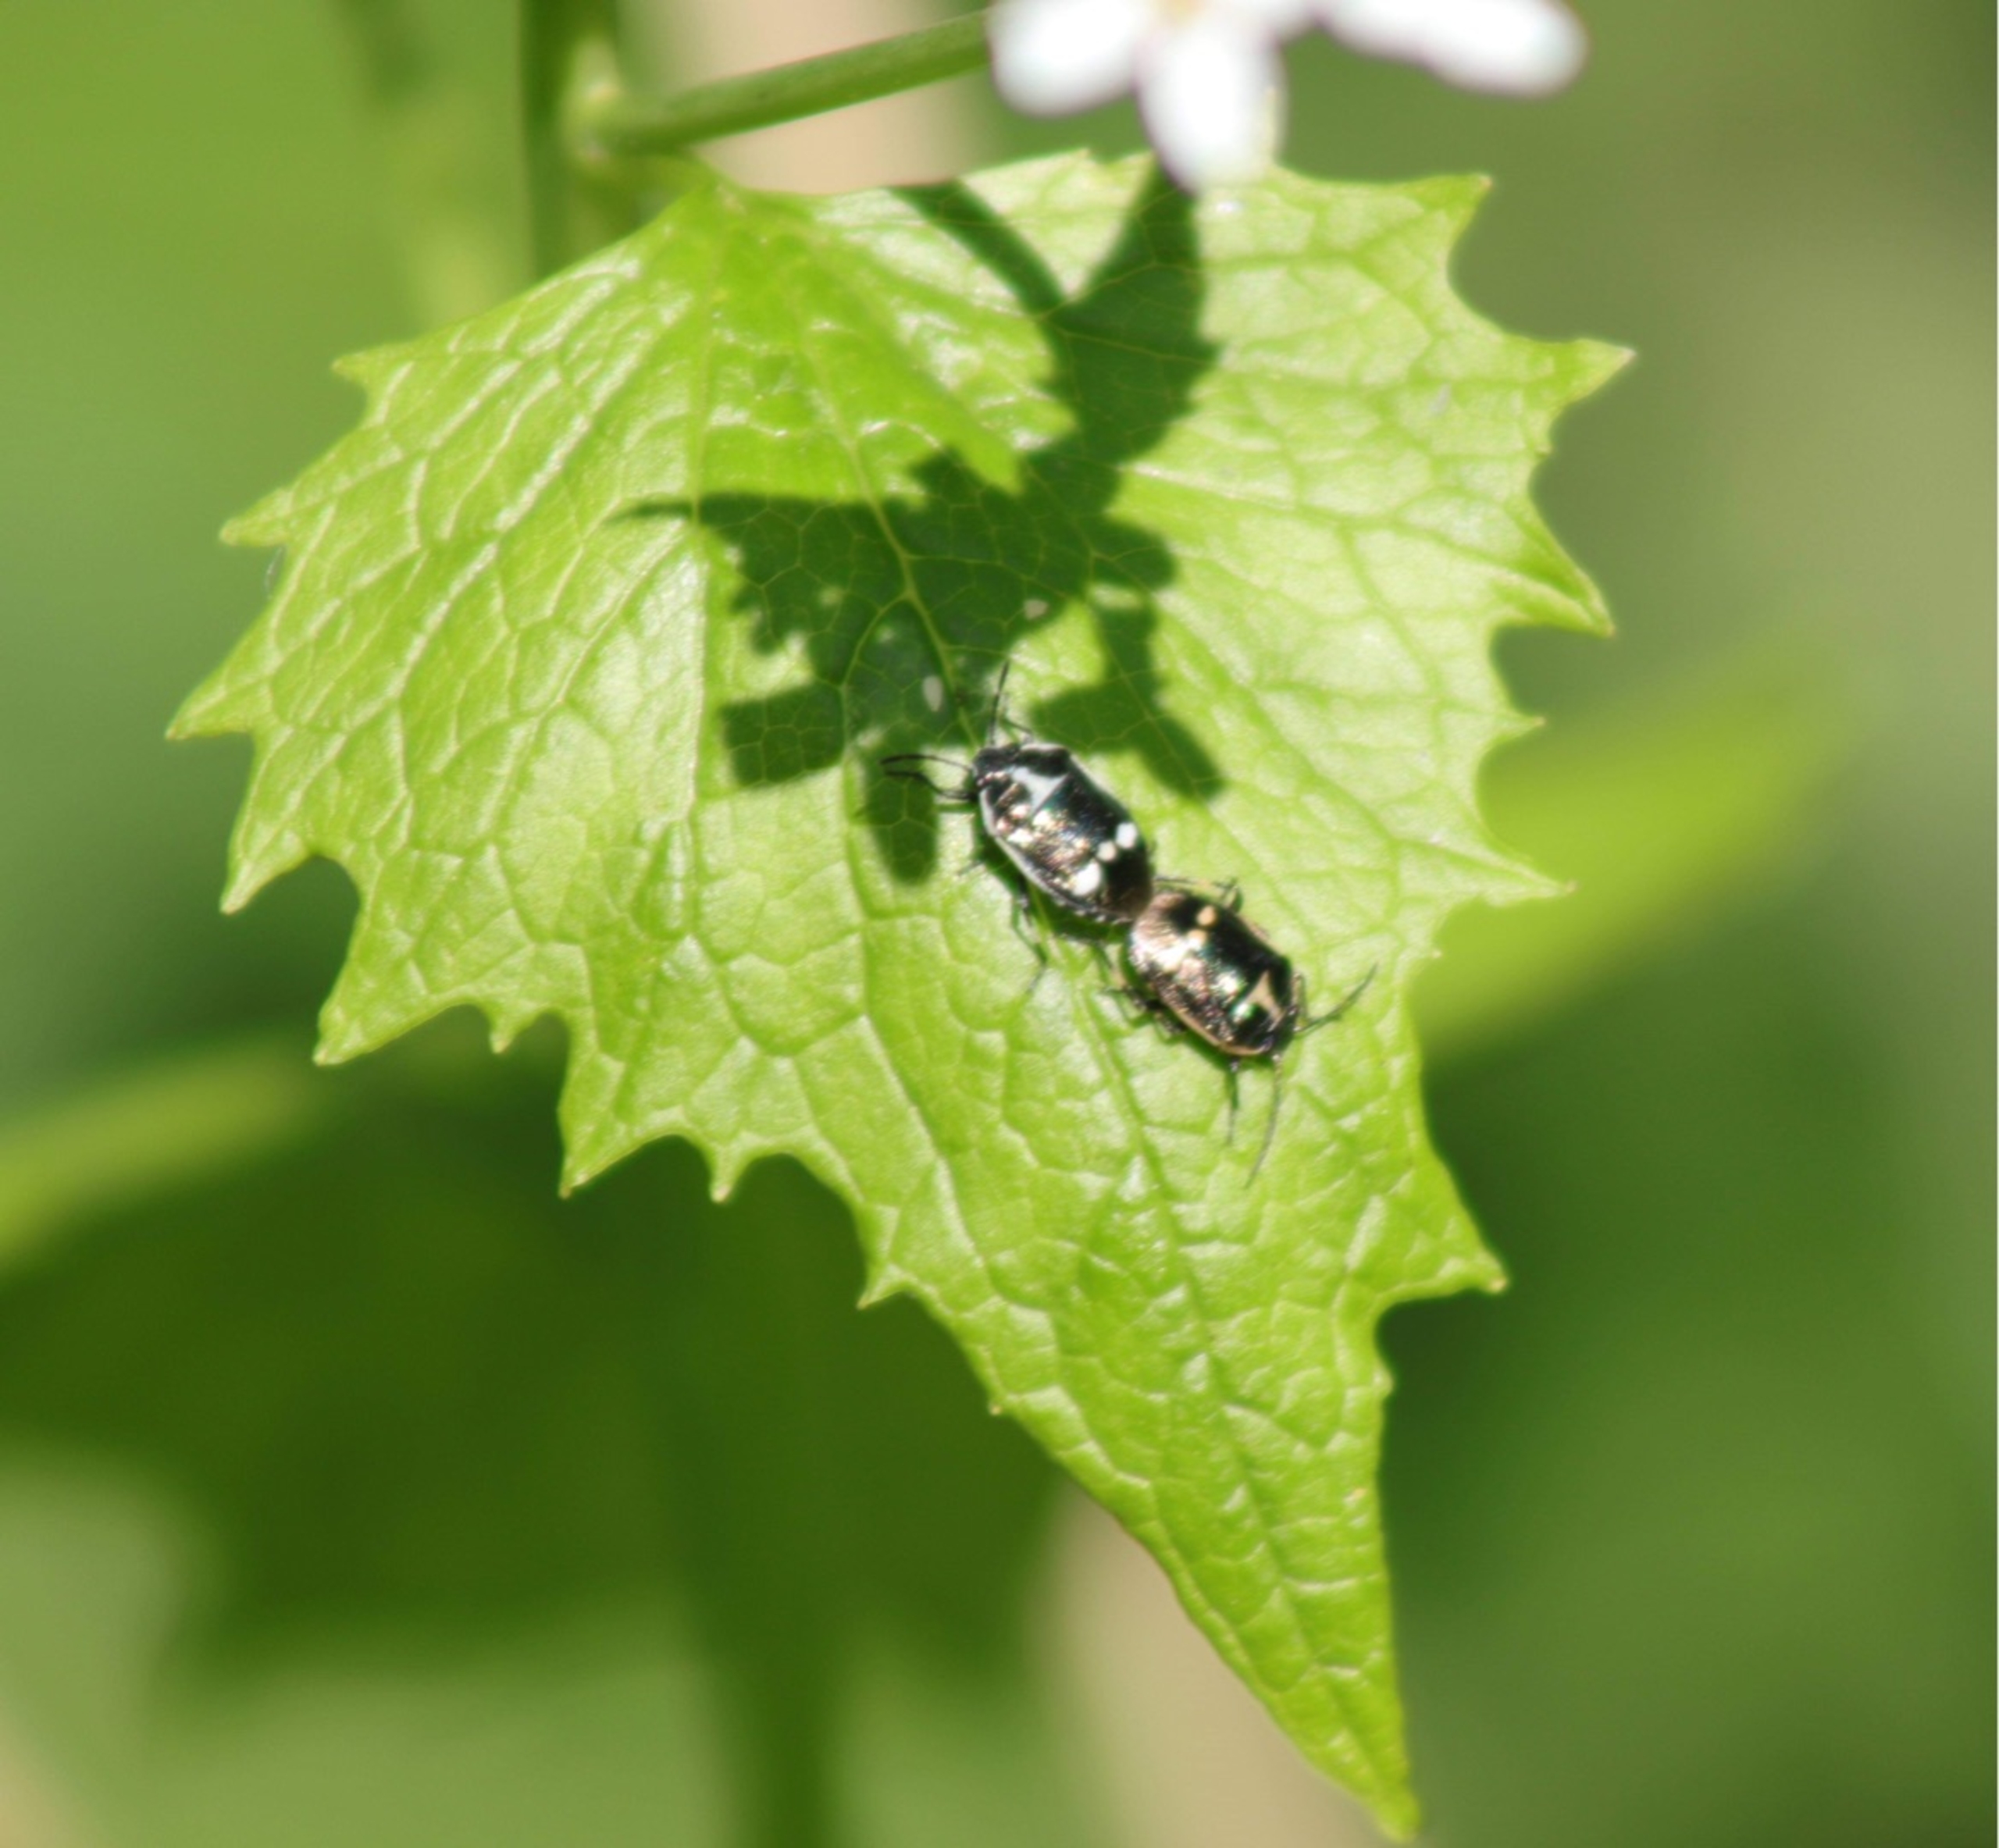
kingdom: Animalia
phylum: Arthropoda
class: Insecta
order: Hemiptera
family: Pentatomidae
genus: Eurydema
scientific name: Eurydema oleracea
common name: Almindelig kåltæge
